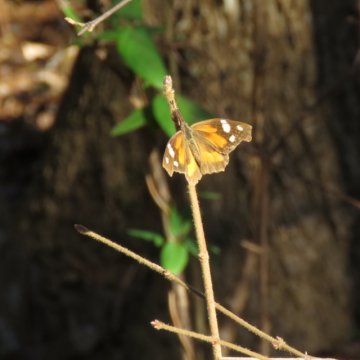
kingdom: Animalia
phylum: Arthropoda
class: Insecta
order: Lepidoptera
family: Nymphalidae
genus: Libytheana
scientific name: Libytheana carinenta
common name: American Snout
